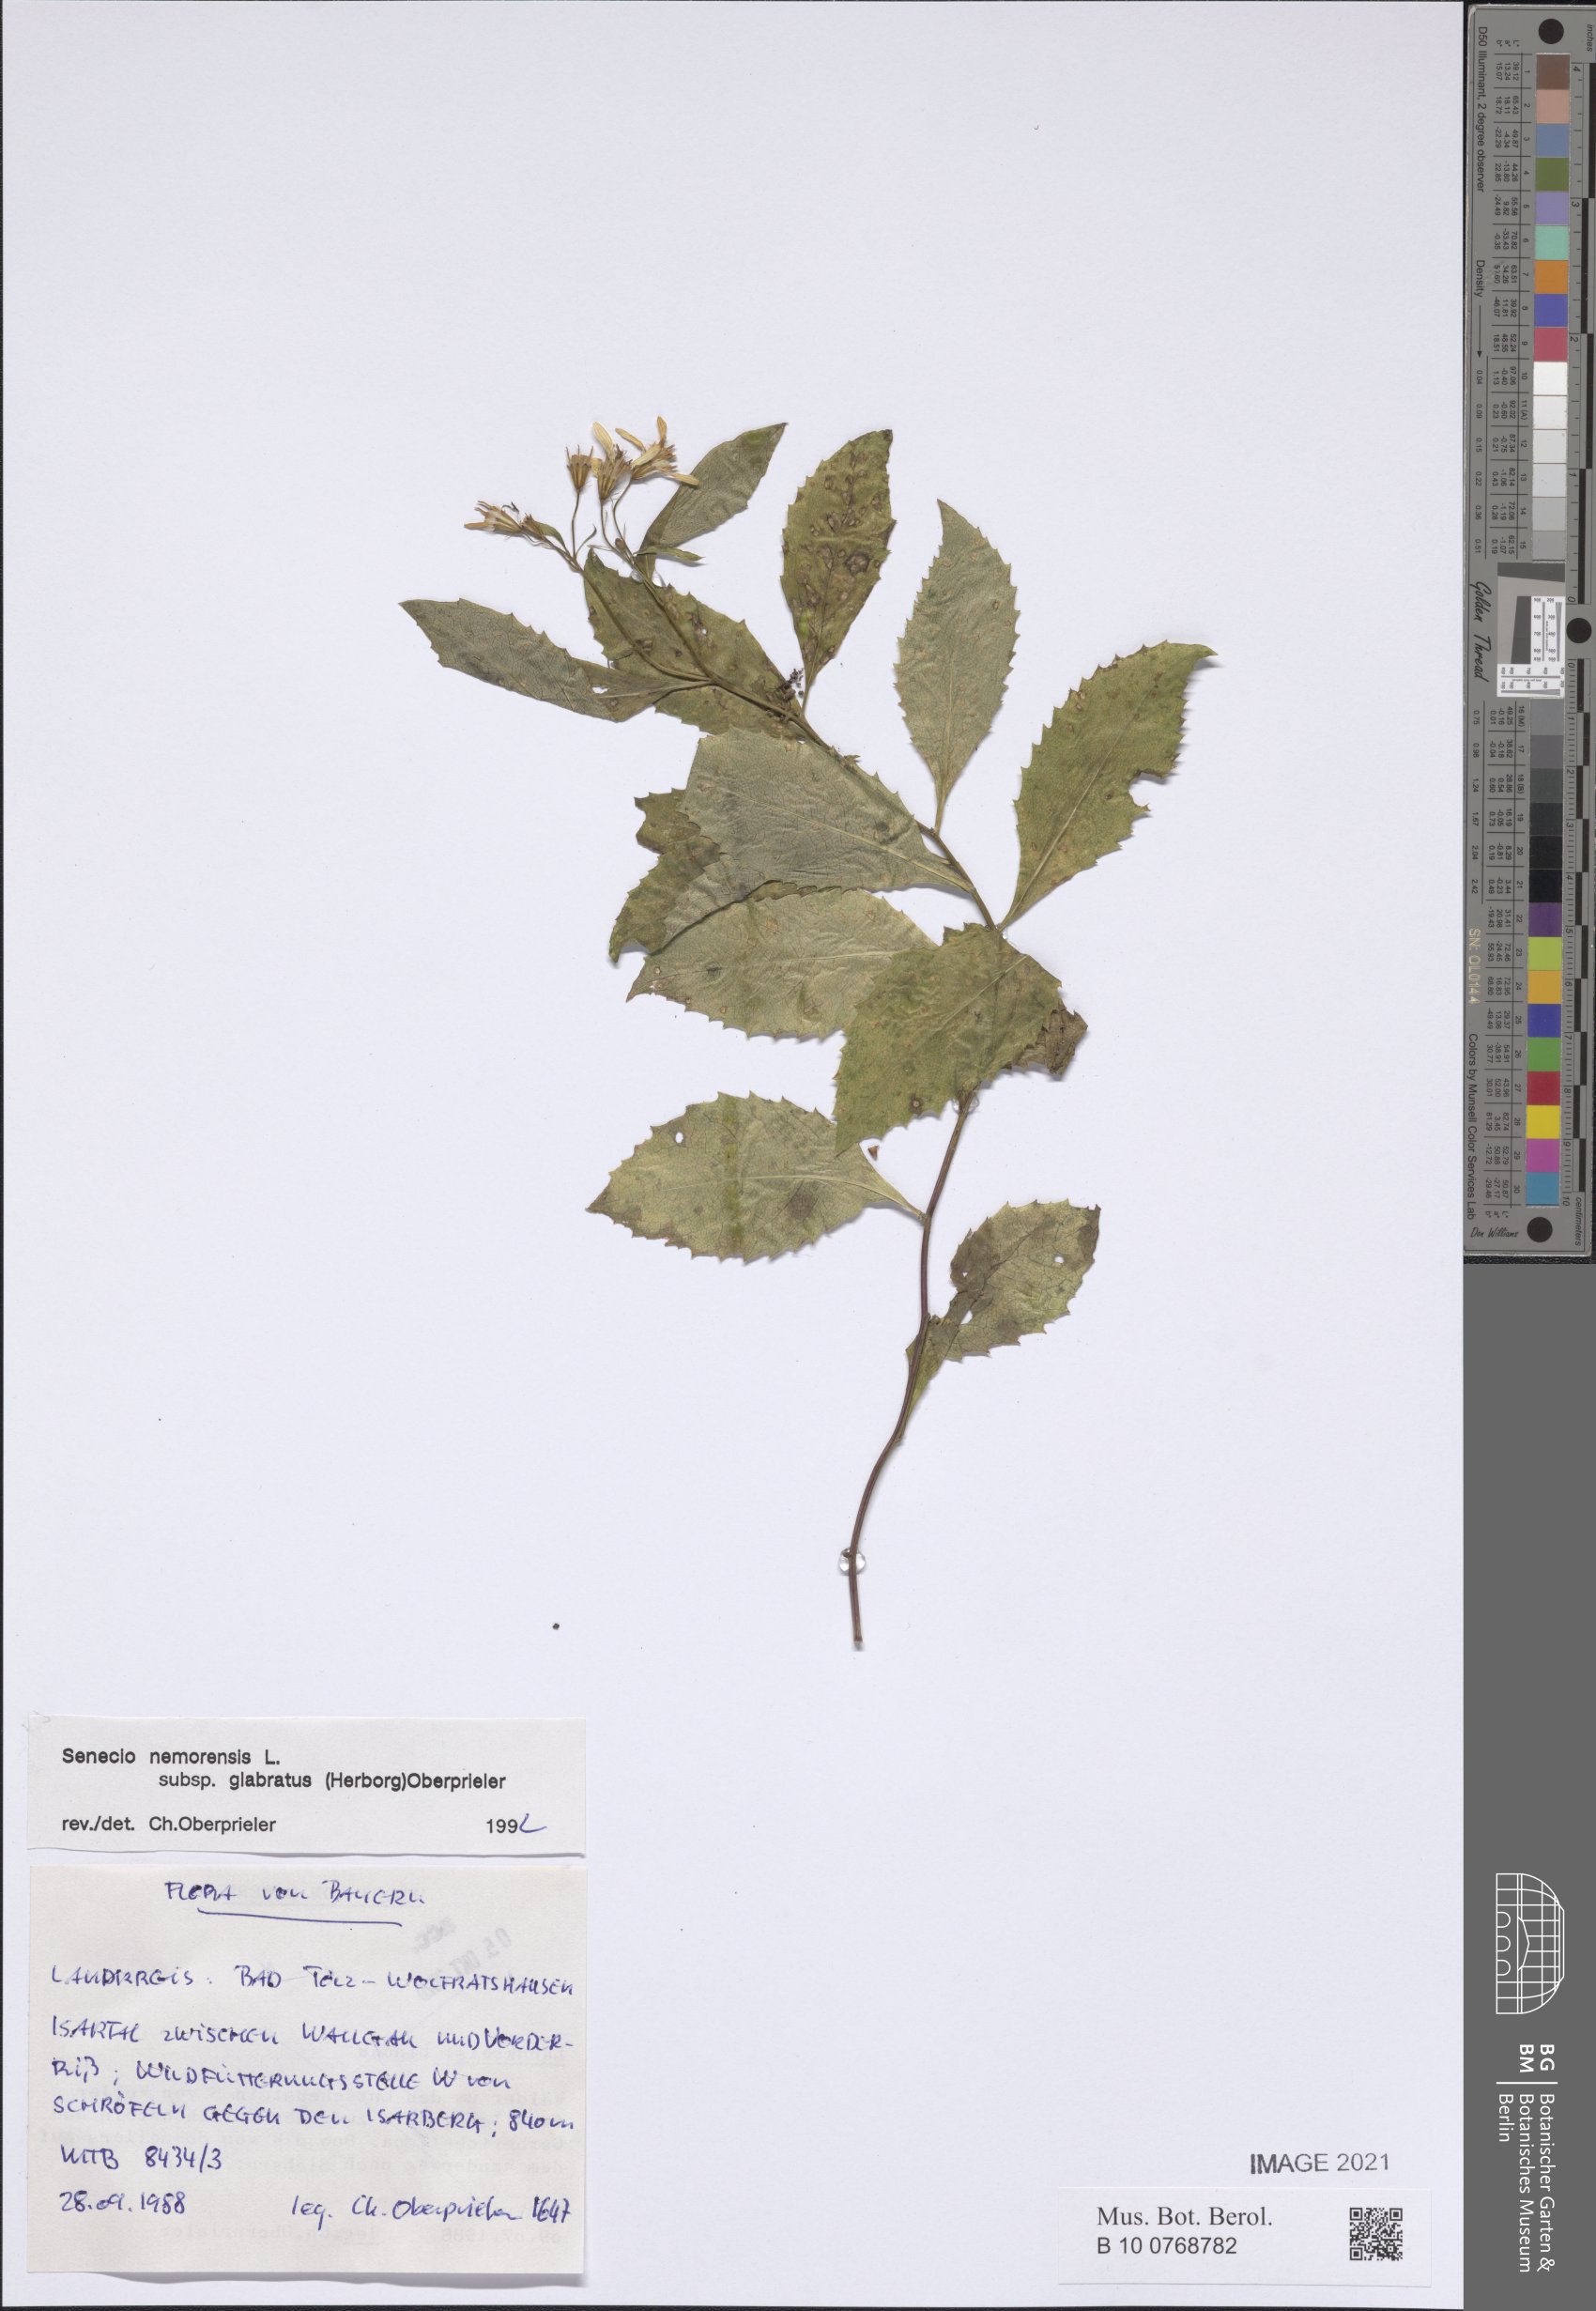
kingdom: Plantae
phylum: Tracheophyta
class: Magnoliopsida
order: Asterales
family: Asteraceae
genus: Senecio
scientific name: Senecio germanicus
